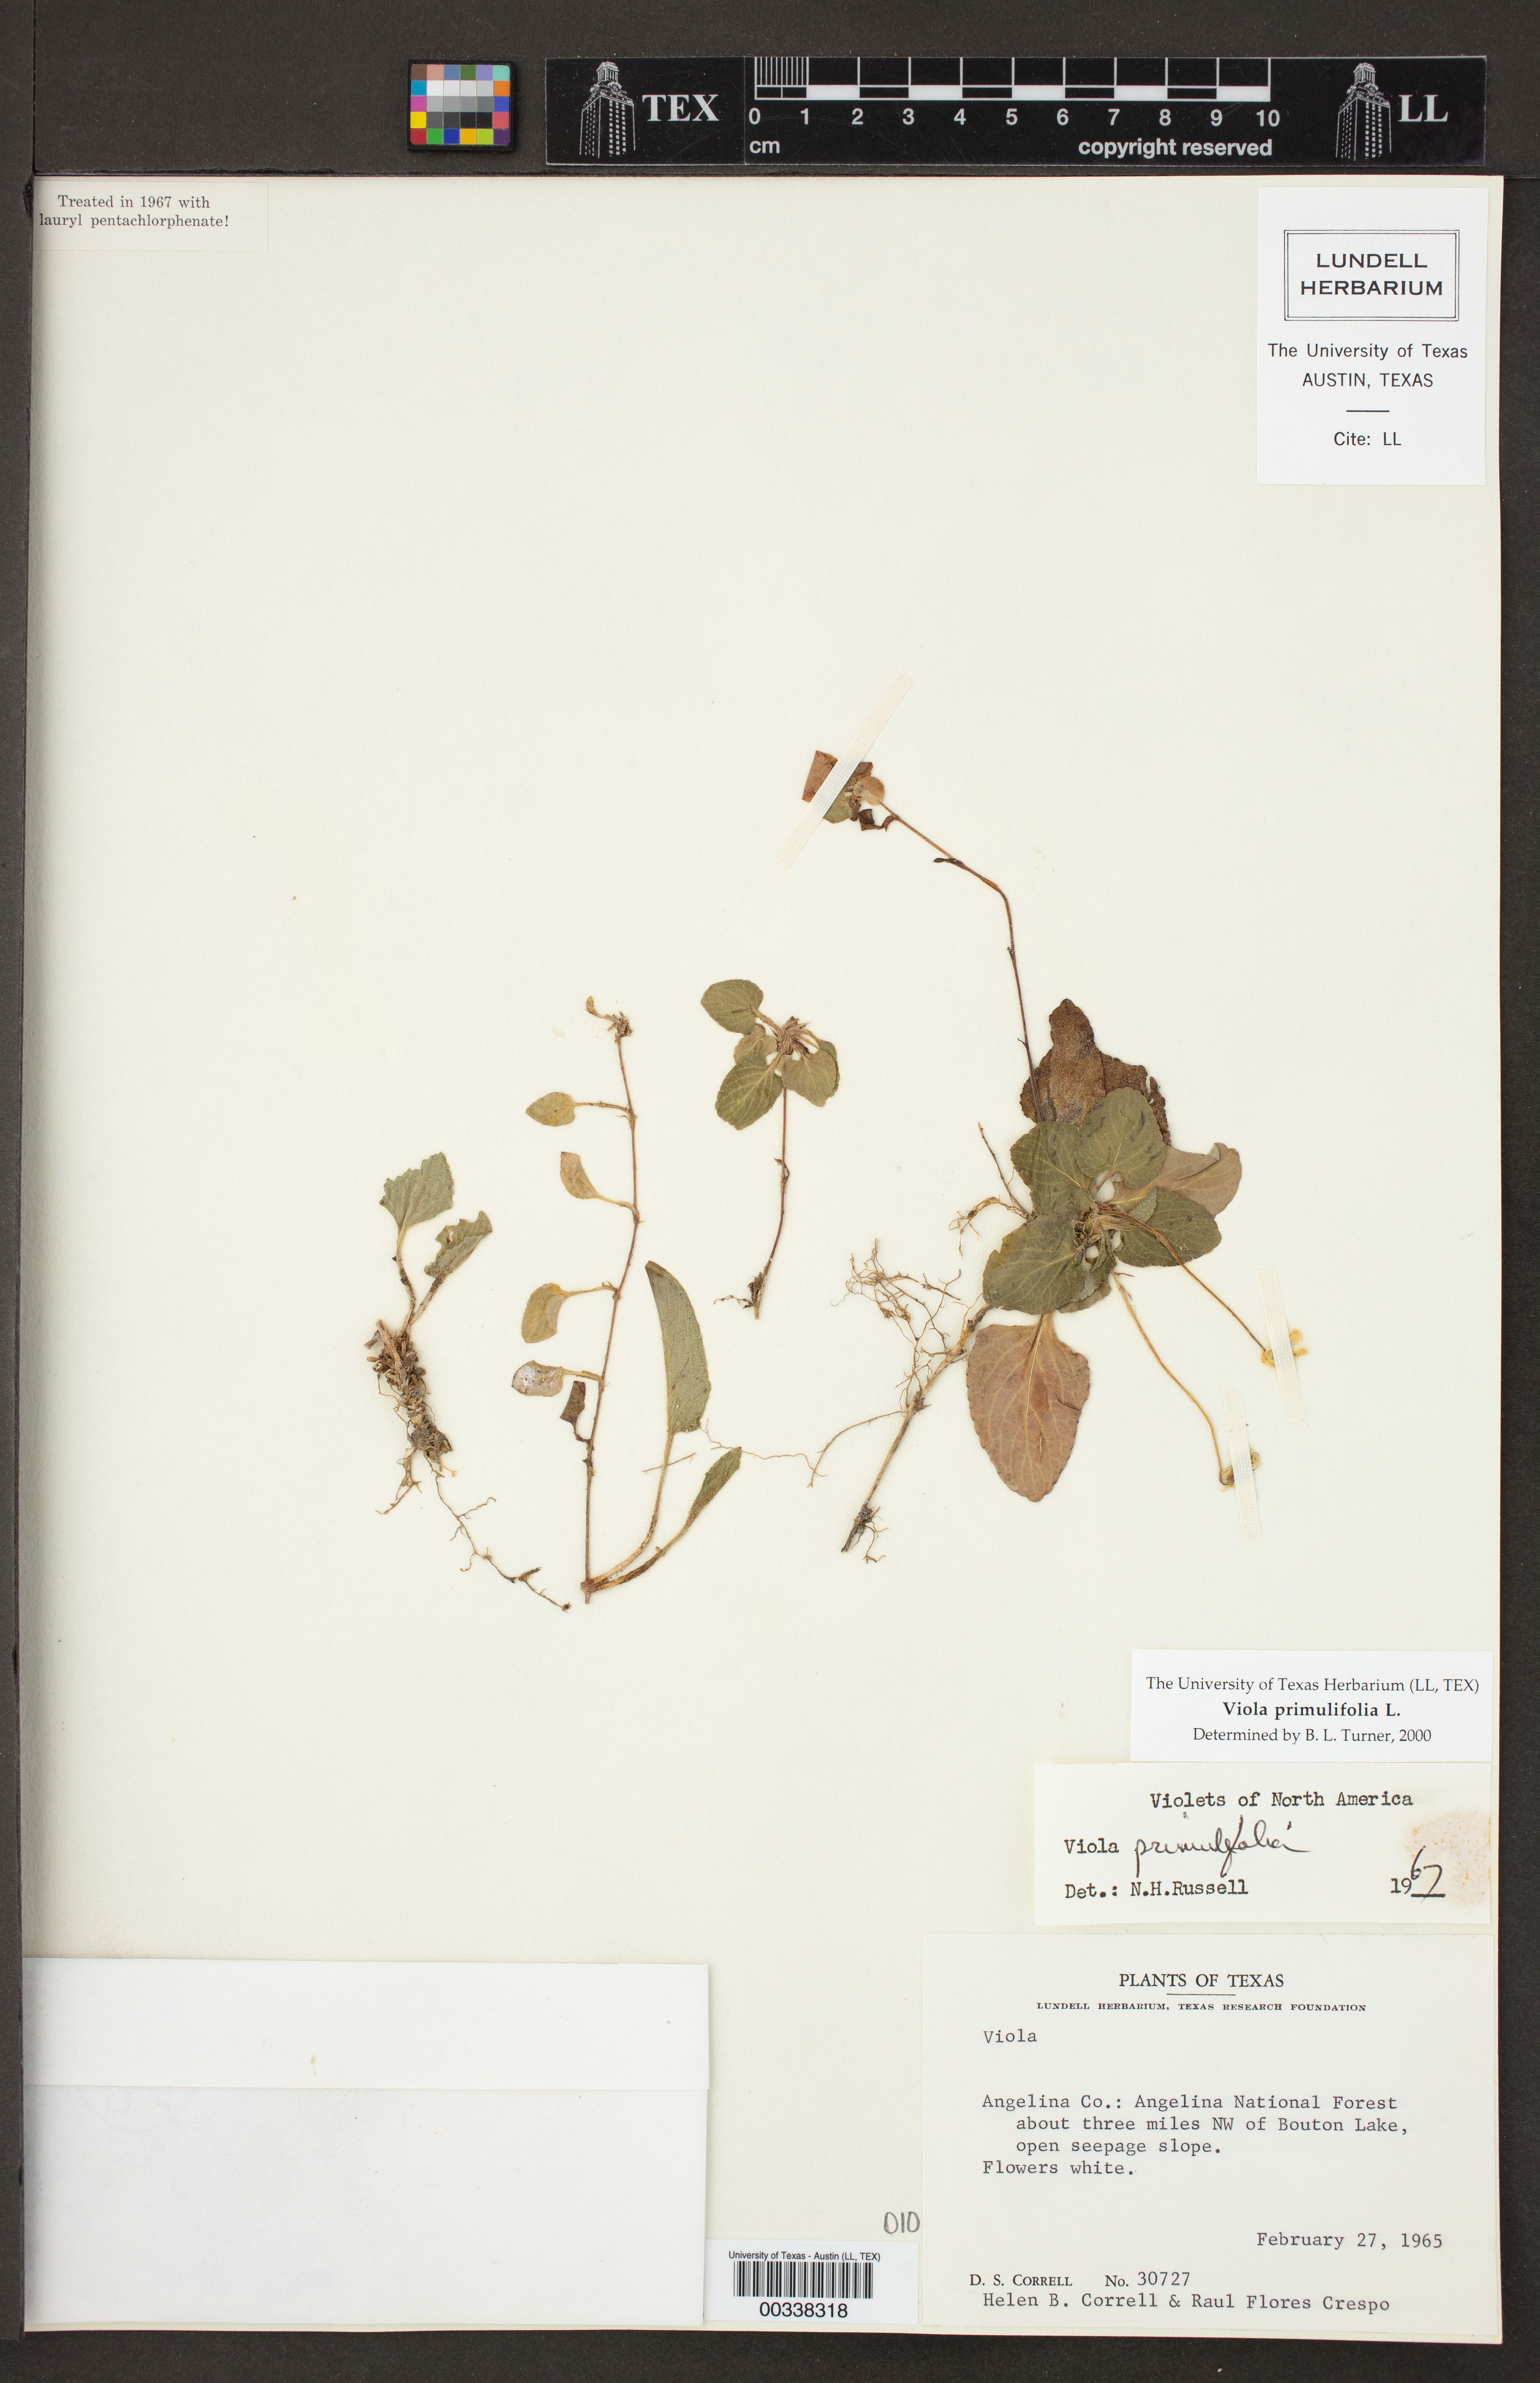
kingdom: Plantae
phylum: Tracheophyta
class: Magnoliopsida
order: Malpighiales
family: Violaceae
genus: Viola
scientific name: Viola primulifolia
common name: Primrose-leaf violet
